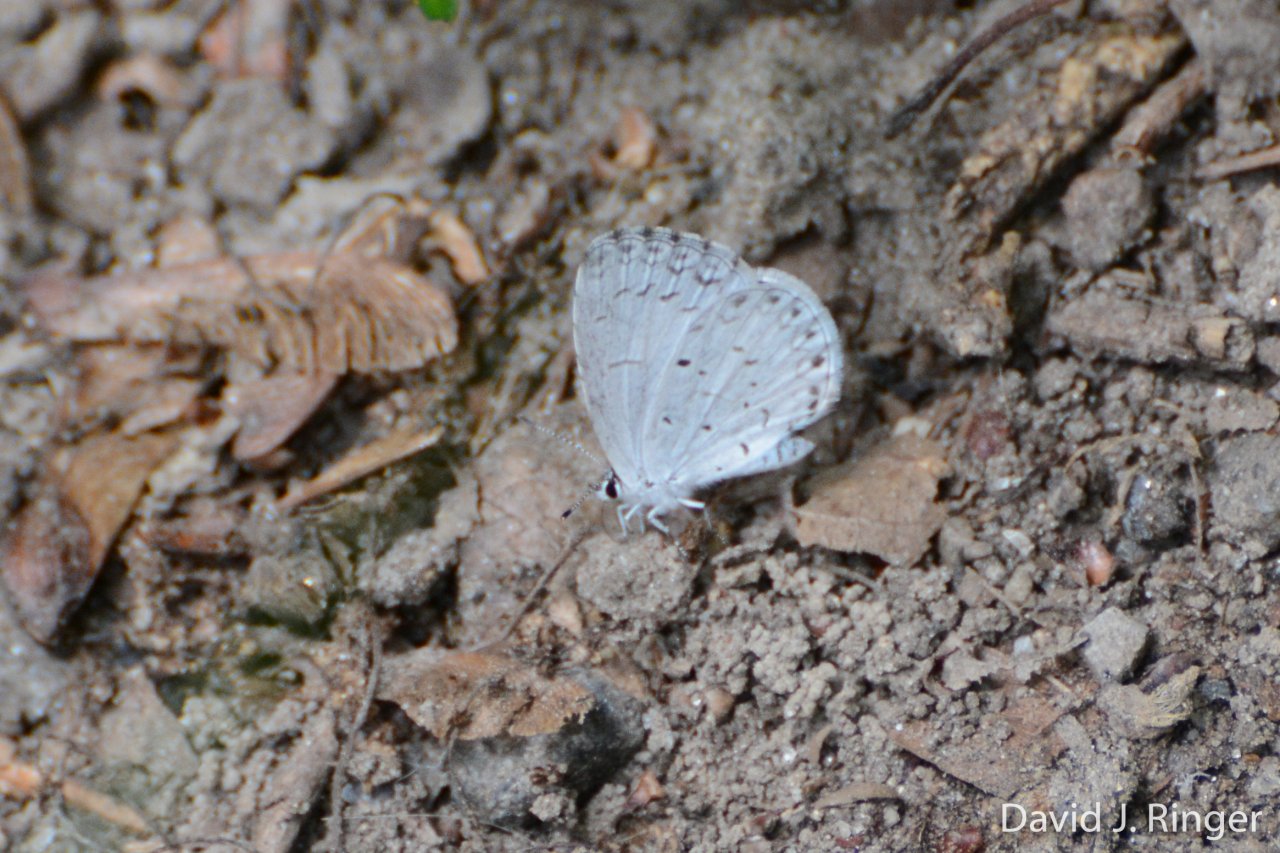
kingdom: Animalia
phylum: Arthropoda
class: Insecta
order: Lepidoptera
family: Lycaenidae
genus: Cyaniris
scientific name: Cyaniris neglecta
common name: Summer Azure
